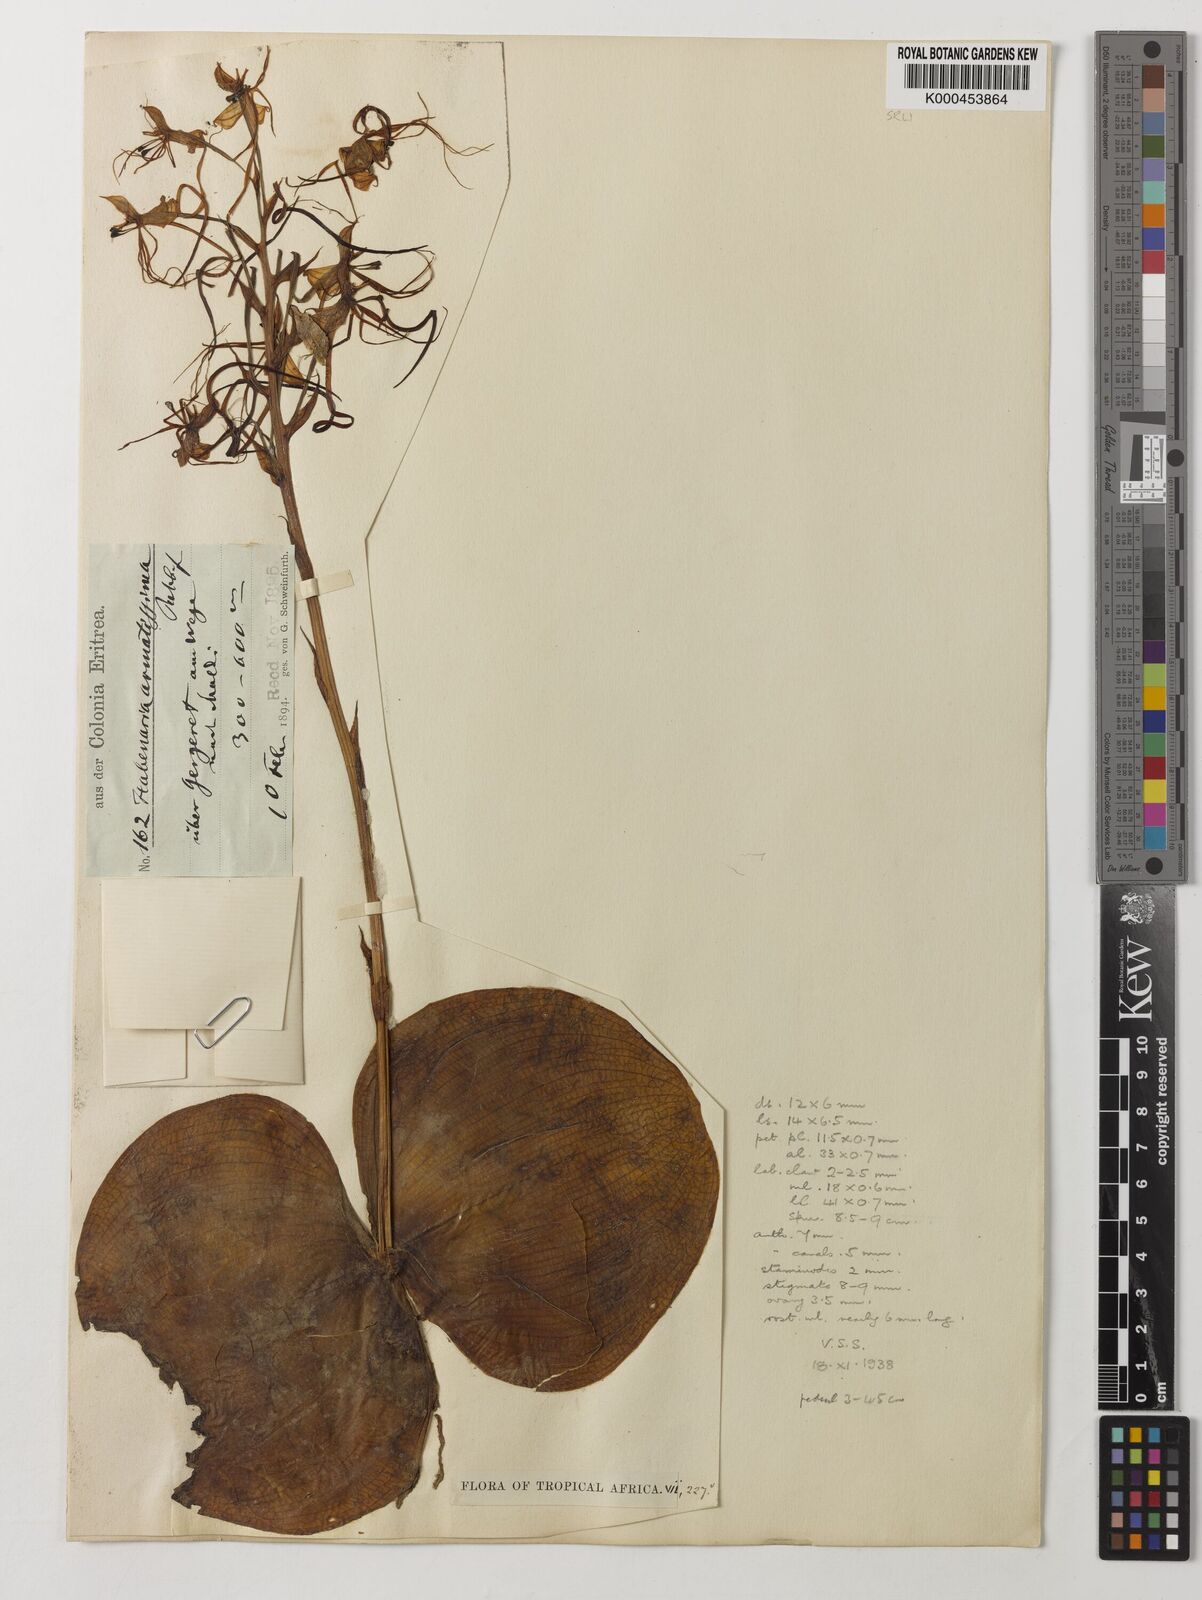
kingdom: Plantae
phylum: Tracheophyta
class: Liliopsida
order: Asparagales
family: Orchidaceae
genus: Habenaria
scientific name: Habenaria armatissima
